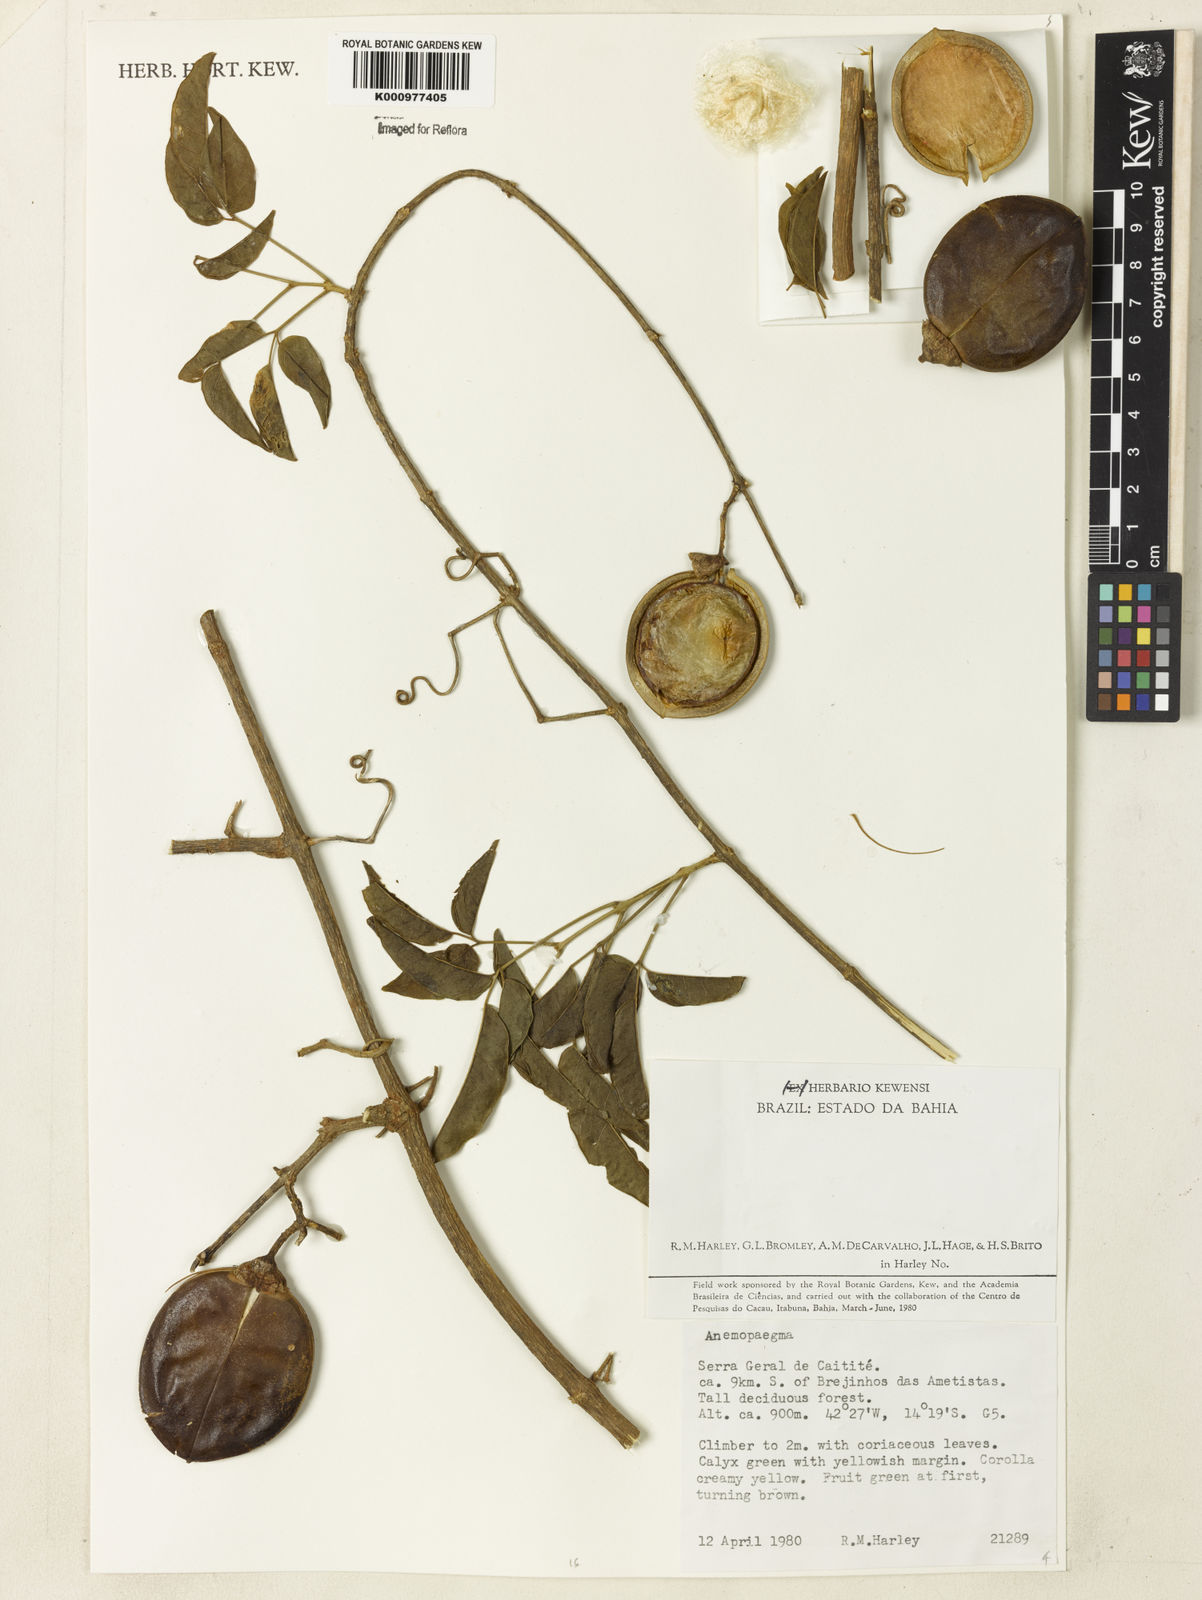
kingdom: Plantae
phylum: Tracheophyta
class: Magnoliopsida
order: Lamiales
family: Bignoniaceae
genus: Anemopaegma
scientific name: Anemopaegma gracile
